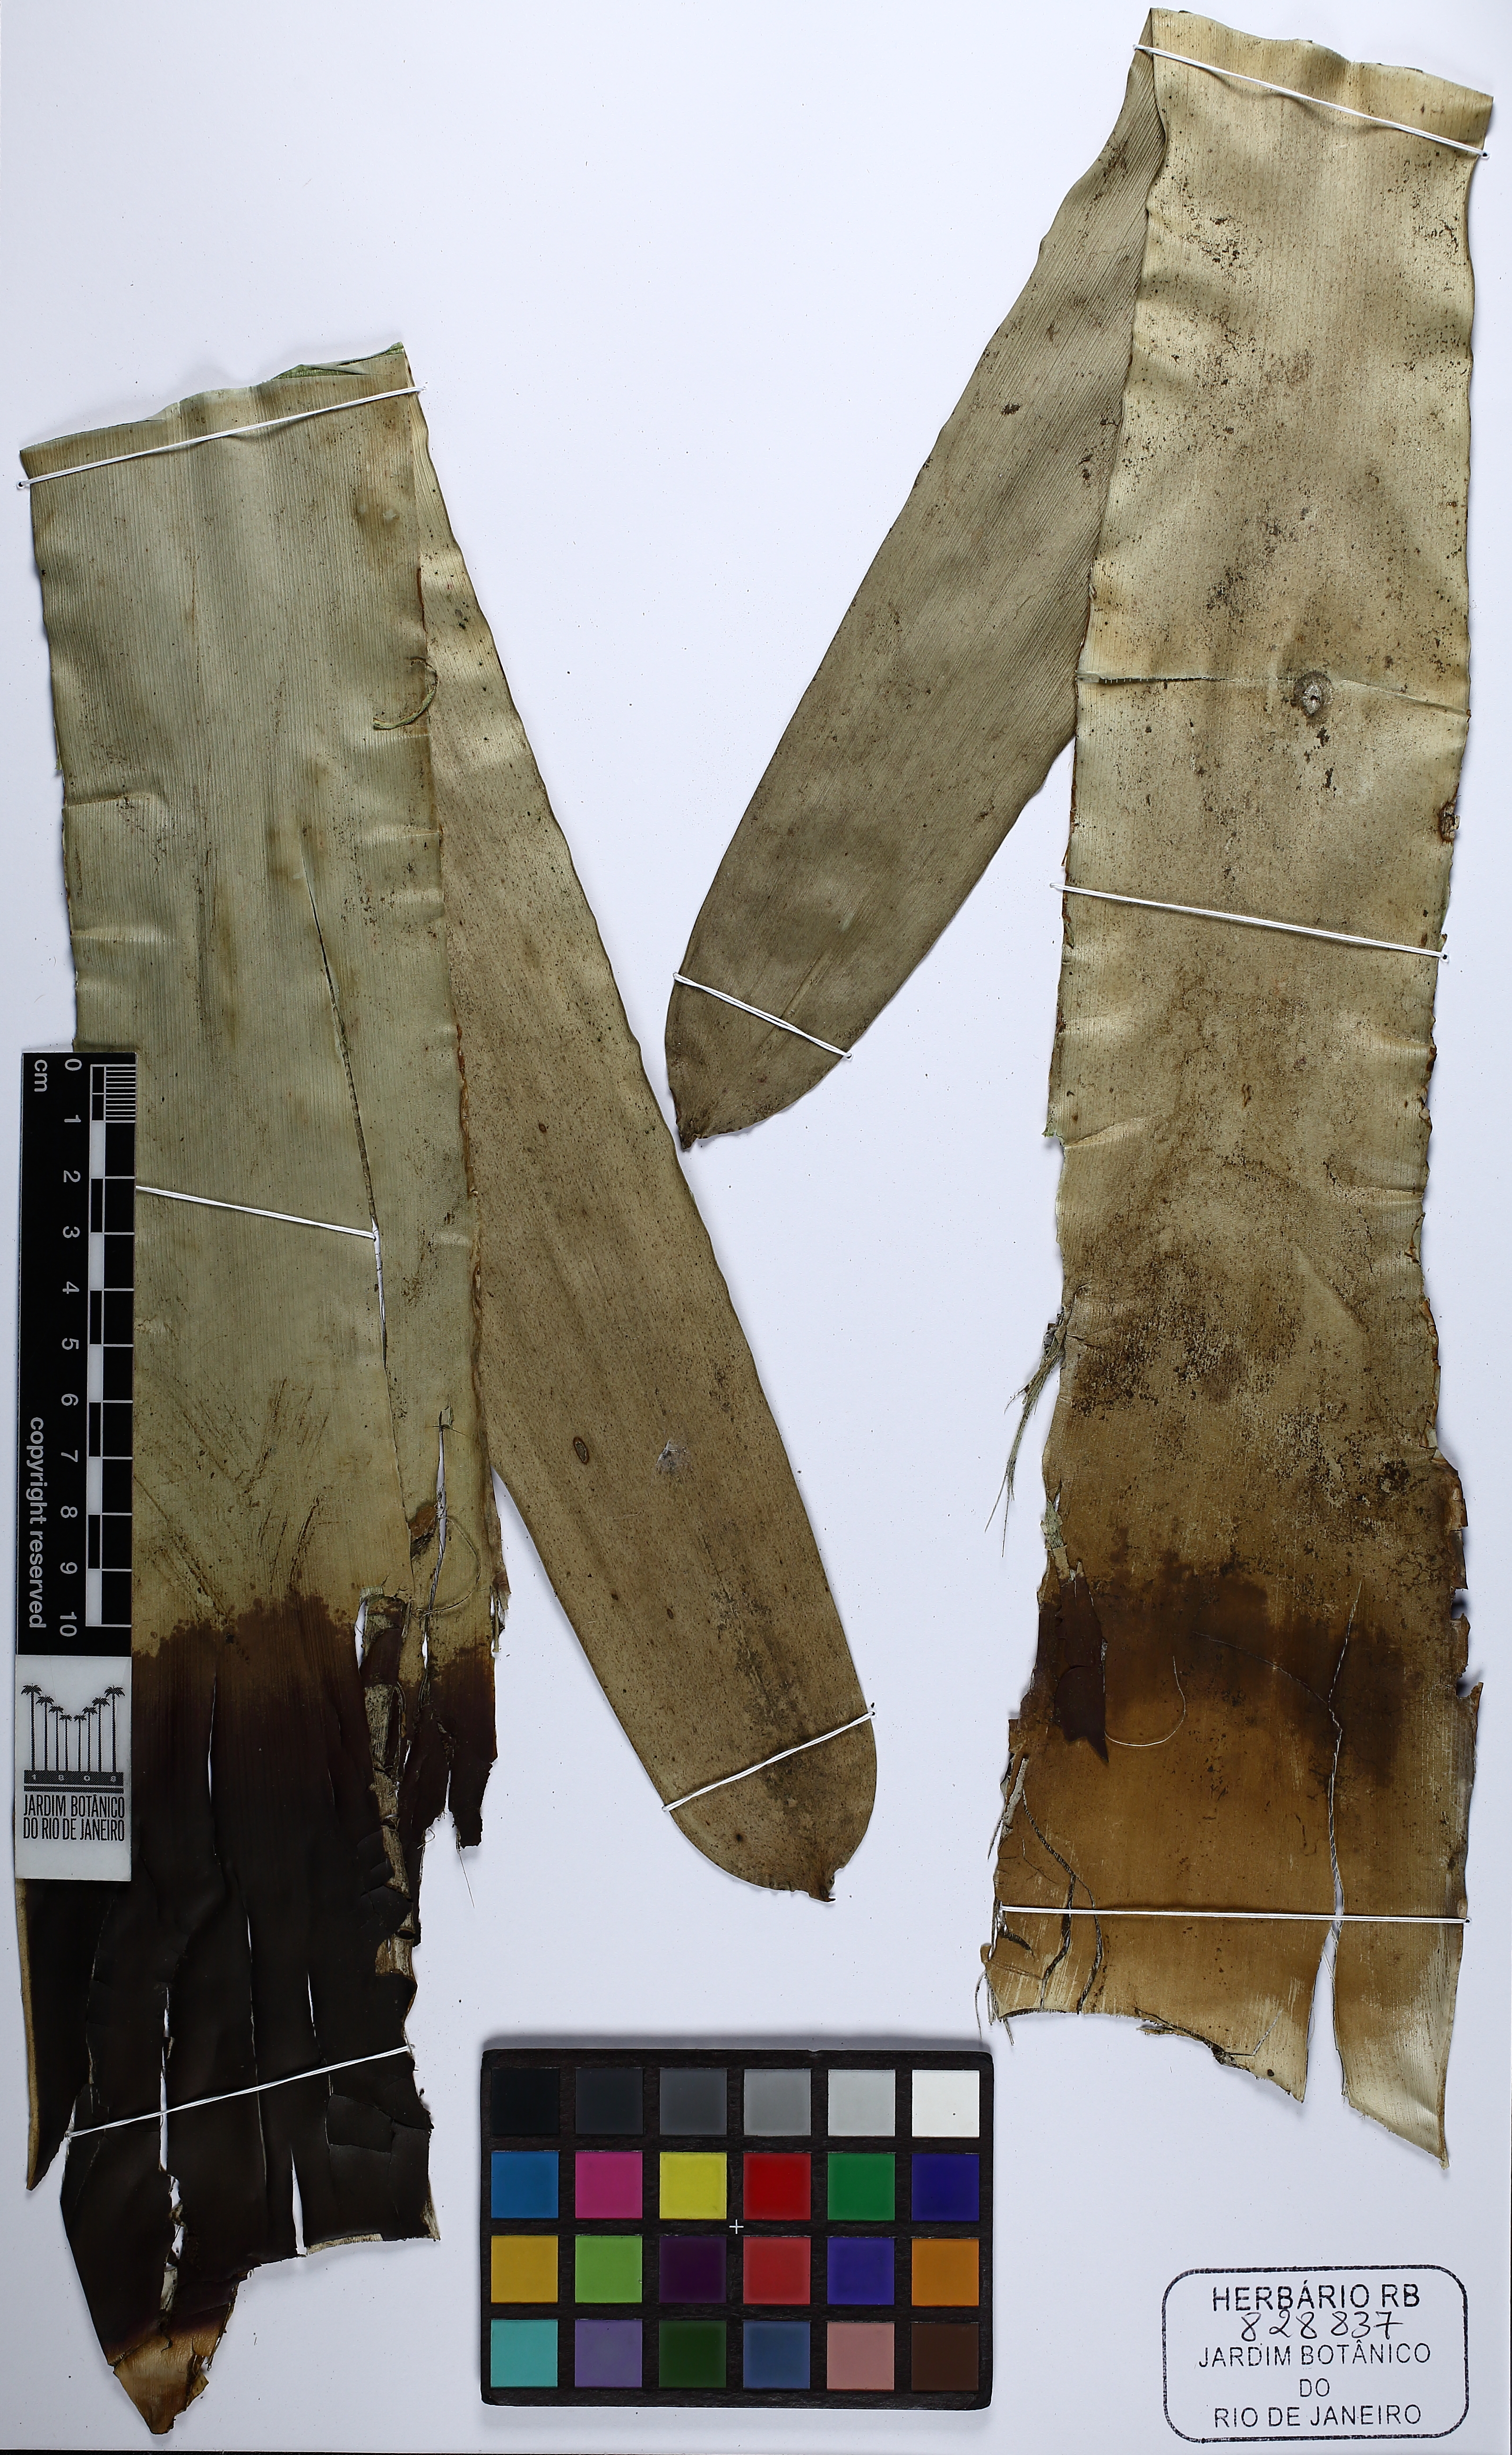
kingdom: Plantae
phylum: Tracheophyta
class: Liliopsida
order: Poales
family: Bromeliaceae
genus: Vriesea
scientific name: Vriesea
